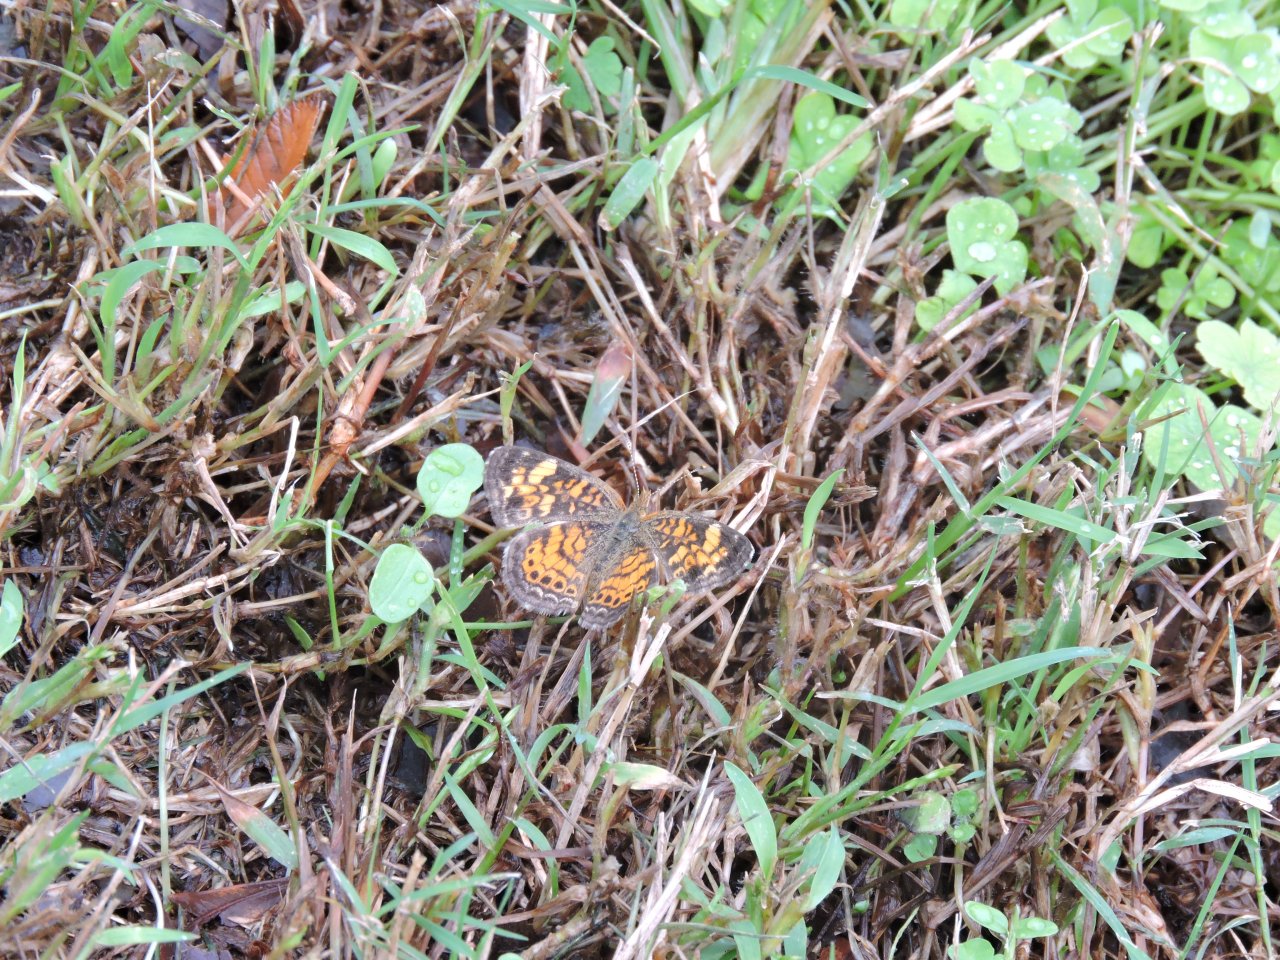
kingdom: Animalia
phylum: Arthropoda
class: Insecta
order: Lepidoptera
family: Nymphalidae
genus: Phyciodes
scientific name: Phyciodes tharos
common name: Pearl Crescent
